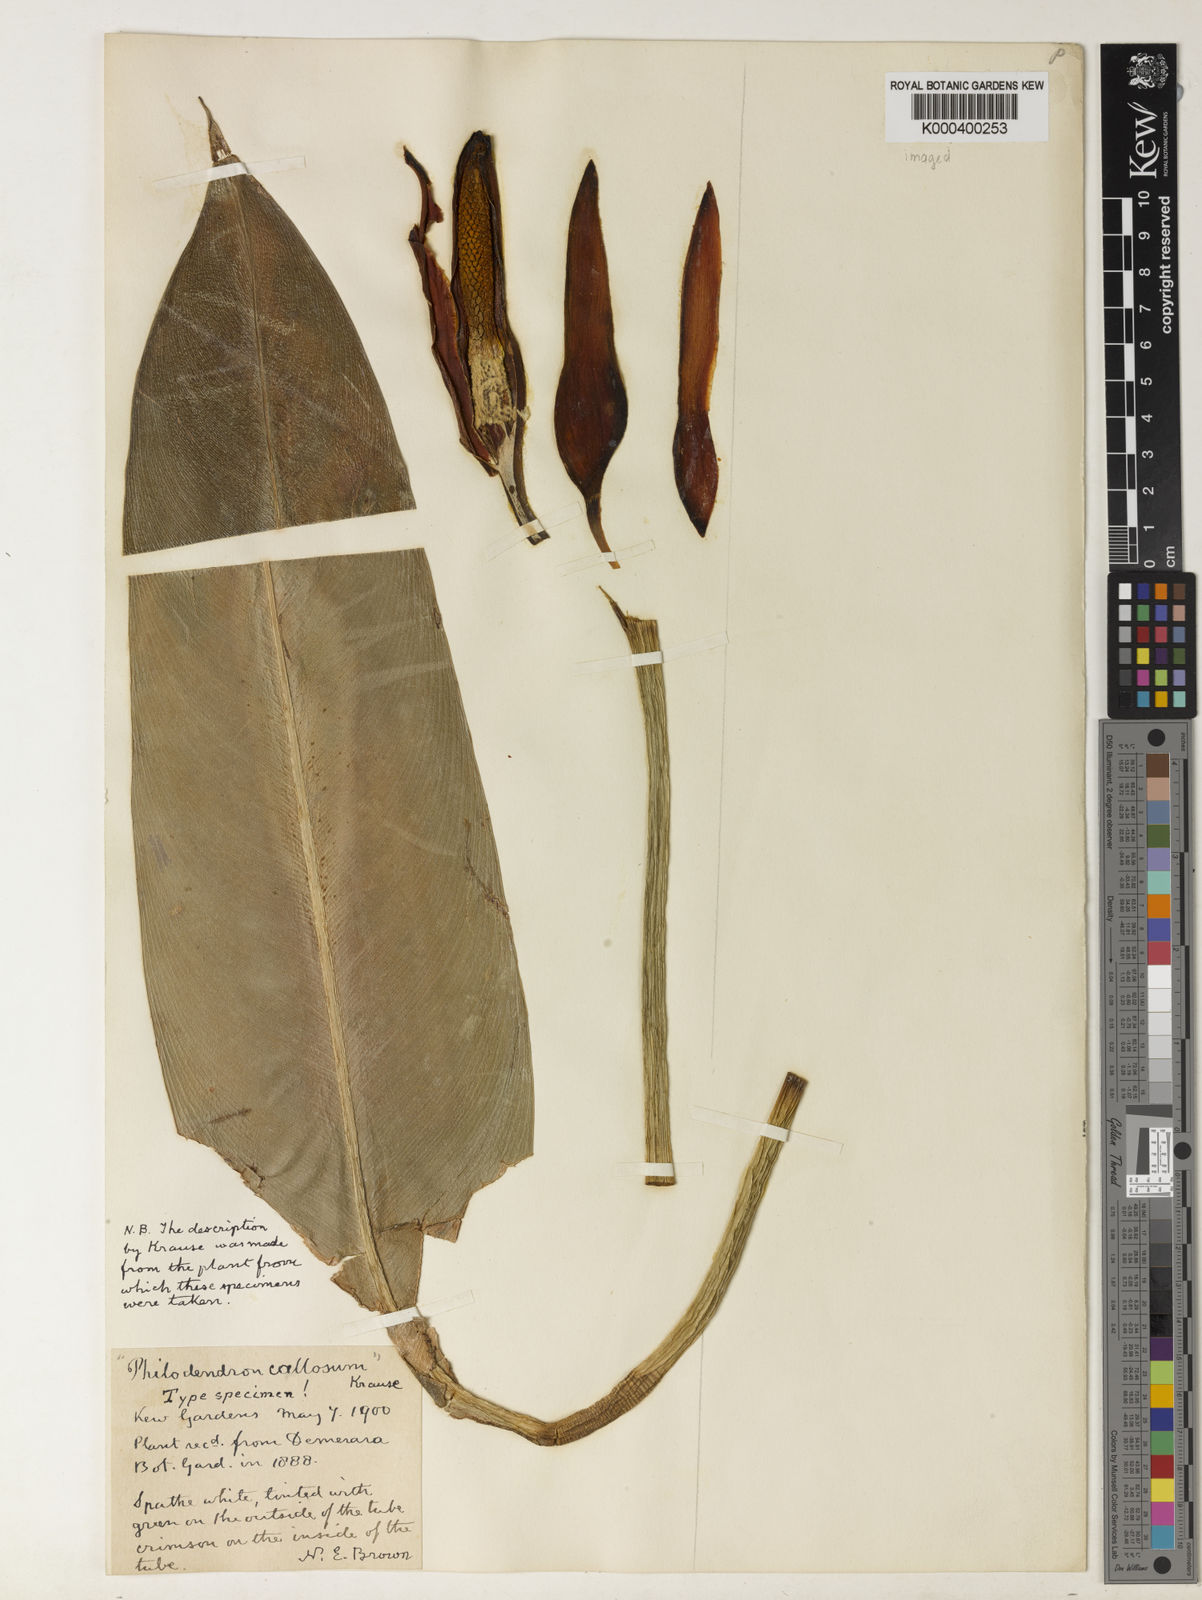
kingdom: Plantae
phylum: Tracheophyta
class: Liliopsida
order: Alismatales
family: Araceae
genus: Philodendron
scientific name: Philodendron callosum
